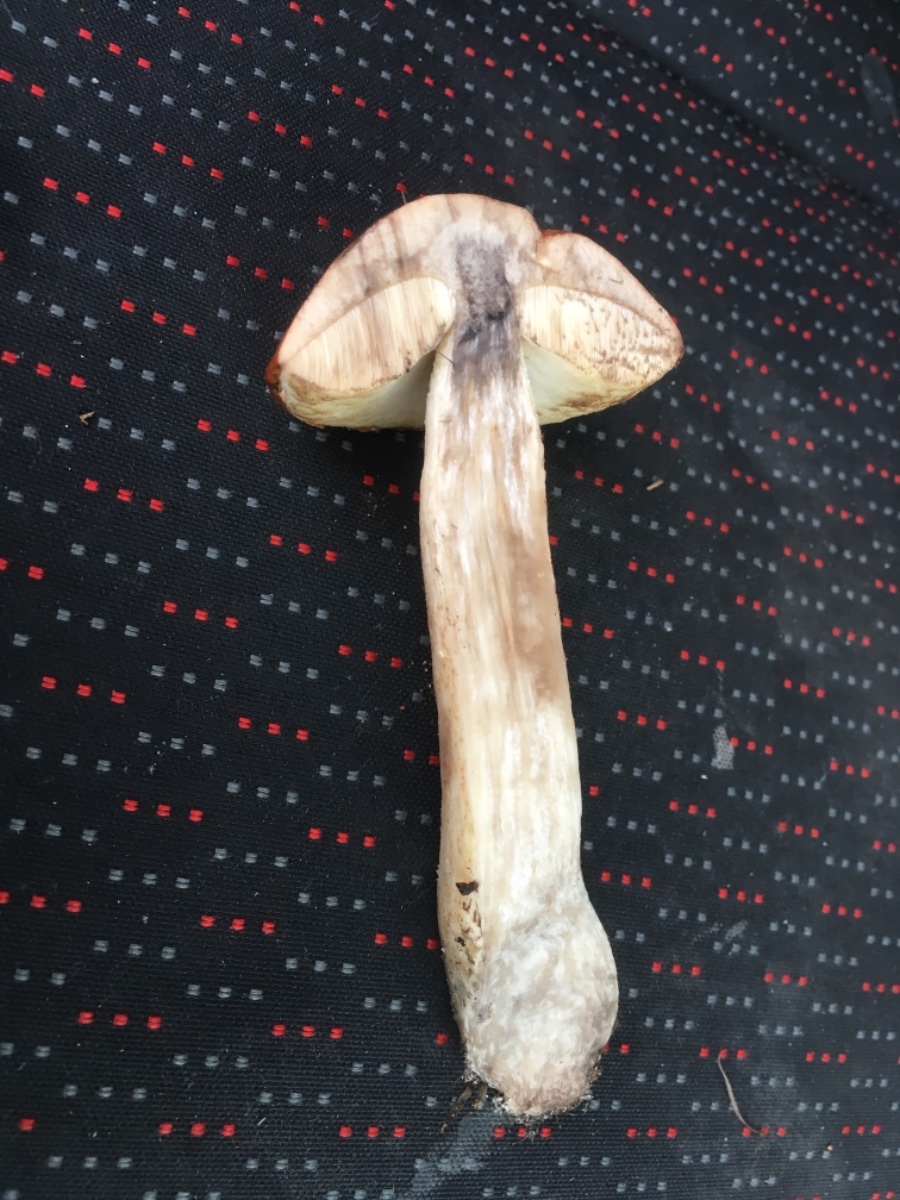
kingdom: Fungi
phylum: Basidiomycota
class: Agaricomycetes
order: Boletales
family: Boletaceae
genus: Leccinum
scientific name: Leccinum albostipitatum
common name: aspe-skælrørhat
